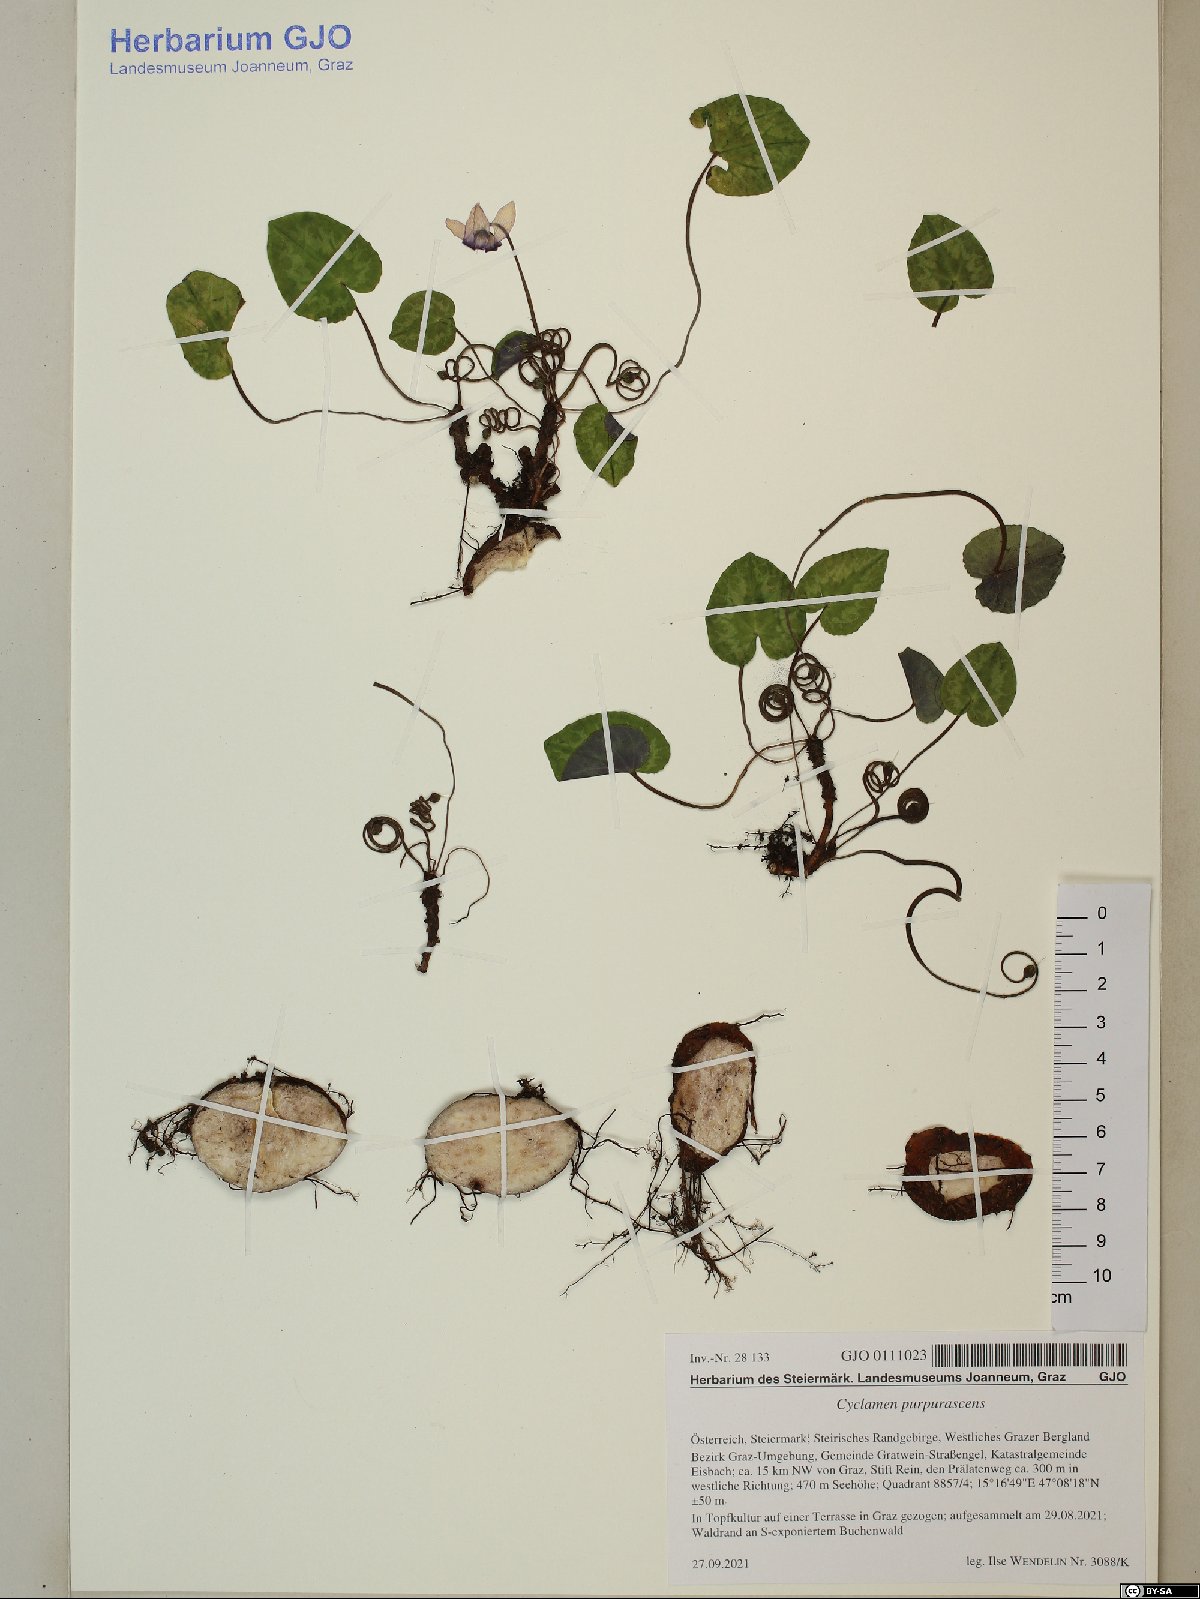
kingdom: Plantae
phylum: Tracheophyta
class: Magnoliopsida
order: Ericales
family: Primulaceae
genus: Cyclamen
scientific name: Cyclamen purpurascens
